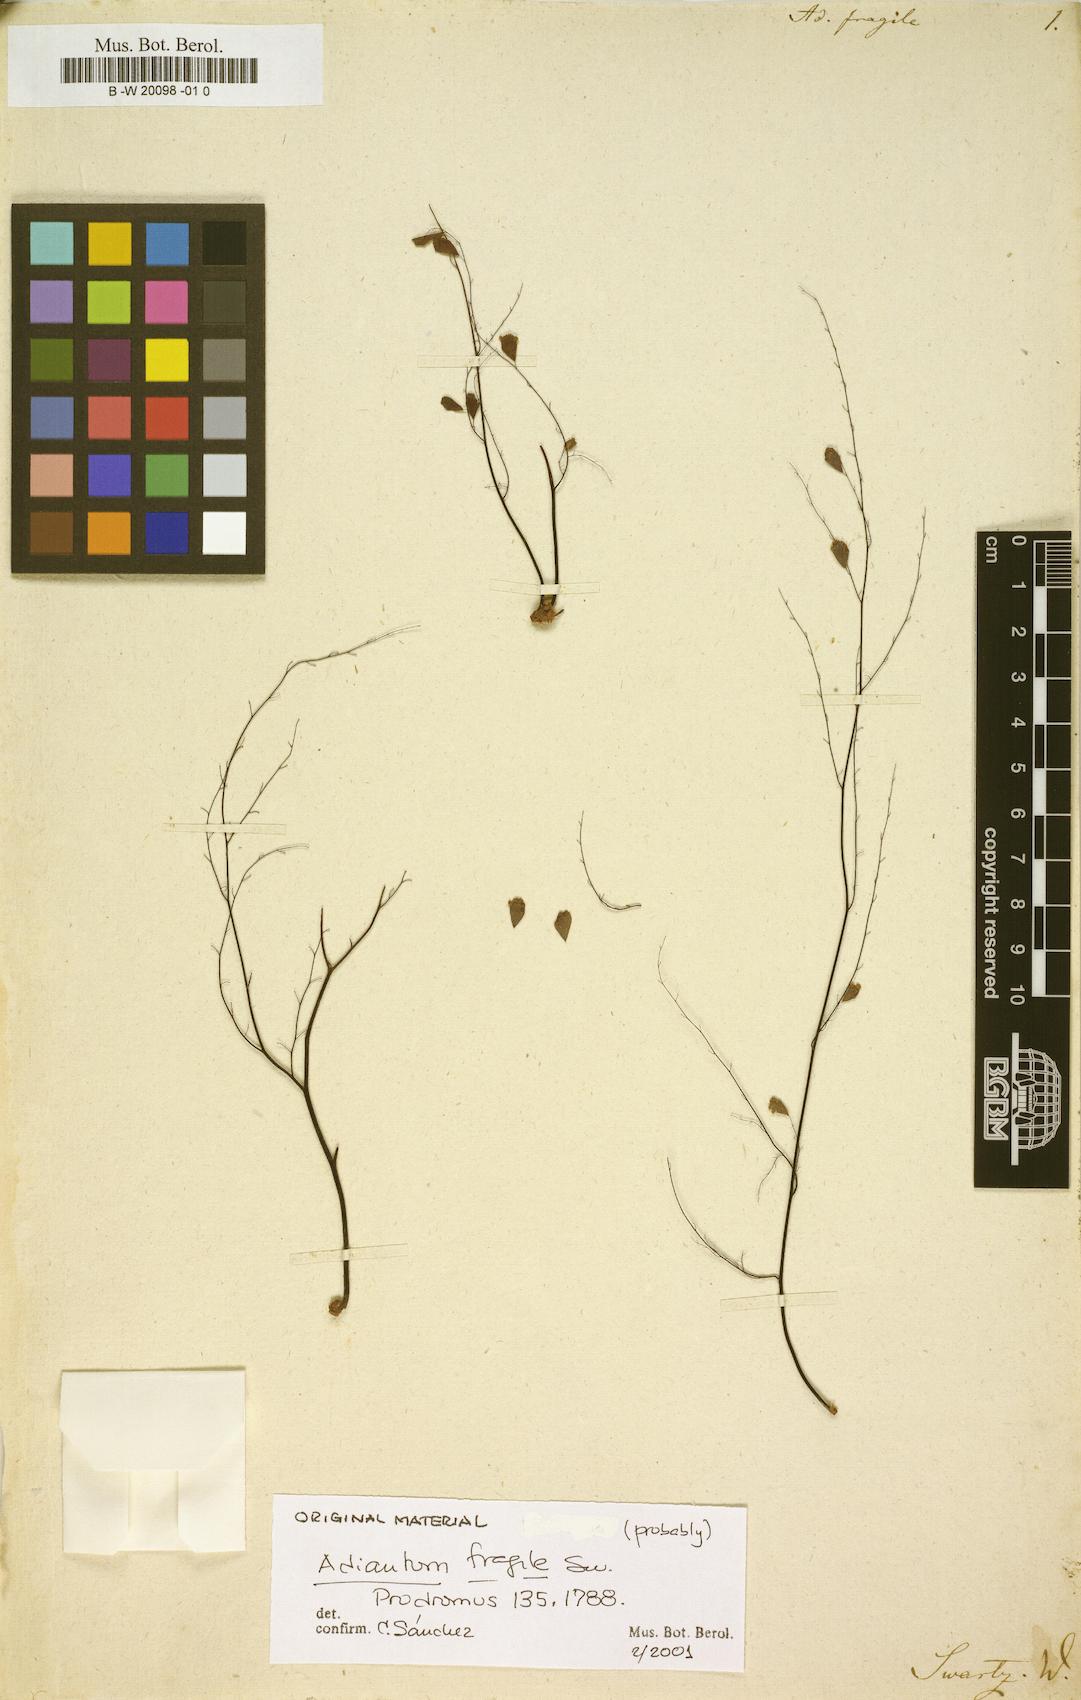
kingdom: Plantae
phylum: Tracheophyta
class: Polypodiopsida
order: Polypodiales
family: Pteridaceae
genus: Adiantum
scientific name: Adiantum fragile
